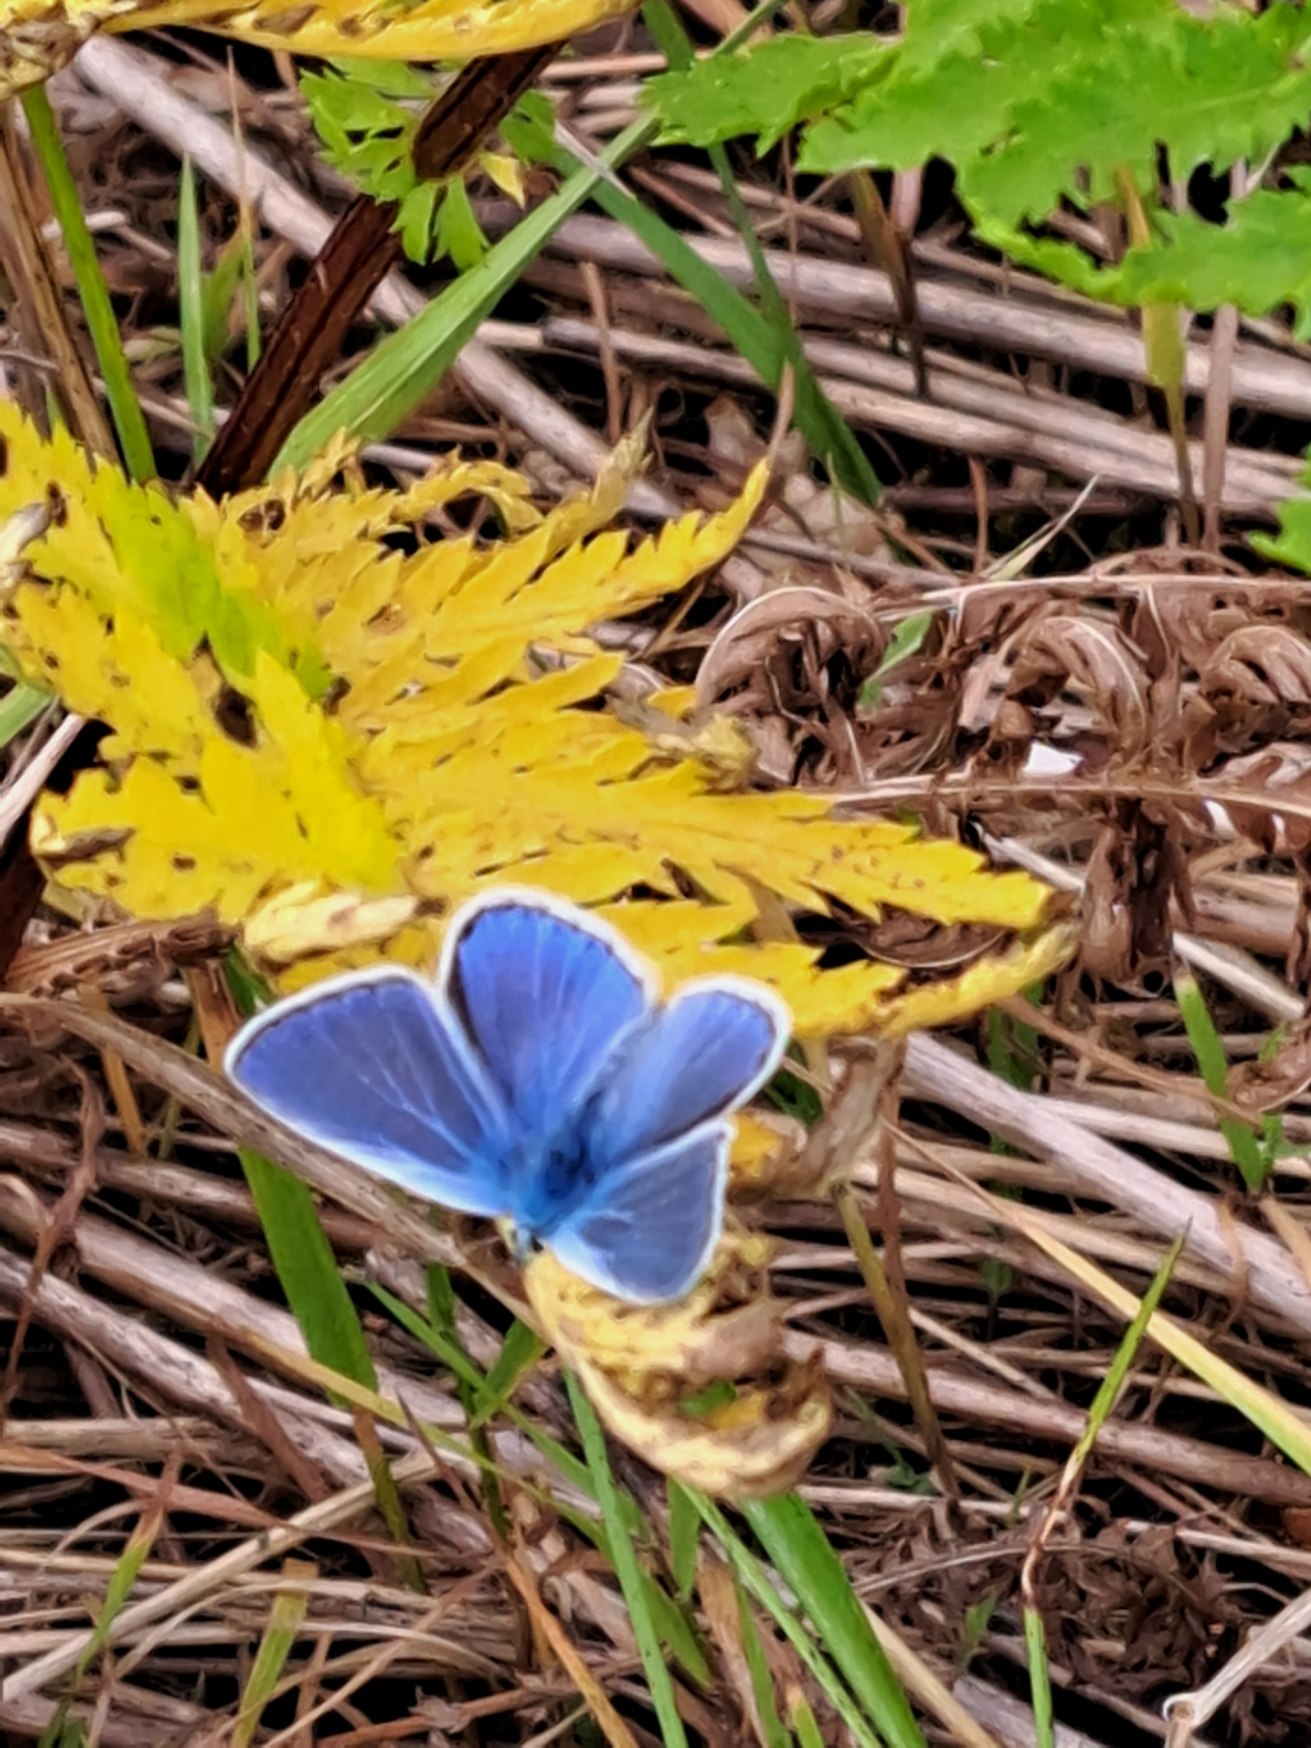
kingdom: Animalia
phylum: Arthropoda
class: Insecta
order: Lepidoptera
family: Lycaenidae
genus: Polyommatus
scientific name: Polyommatus icarus
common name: Almindelig blåfugl
